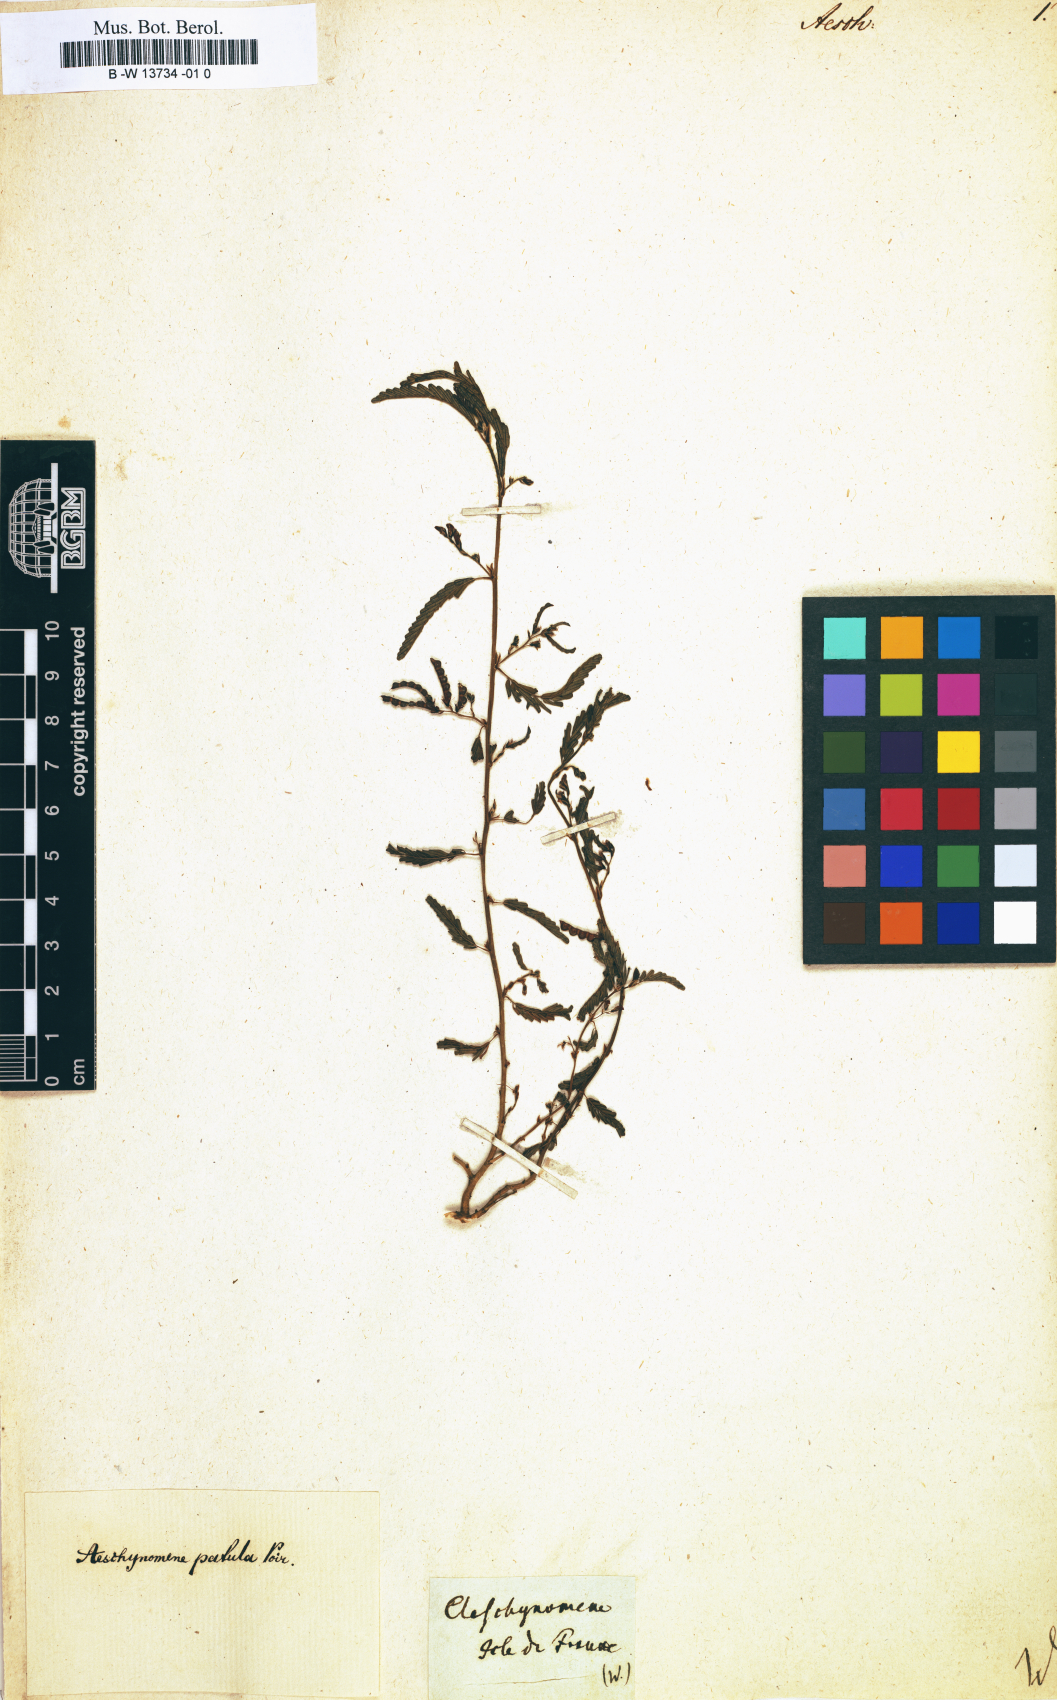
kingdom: Plantae
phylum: Tracheophyta
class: Magnoliopsida
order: Fabales
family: Fabaceae
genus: Aeschynomene
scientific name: Aeschynomene
